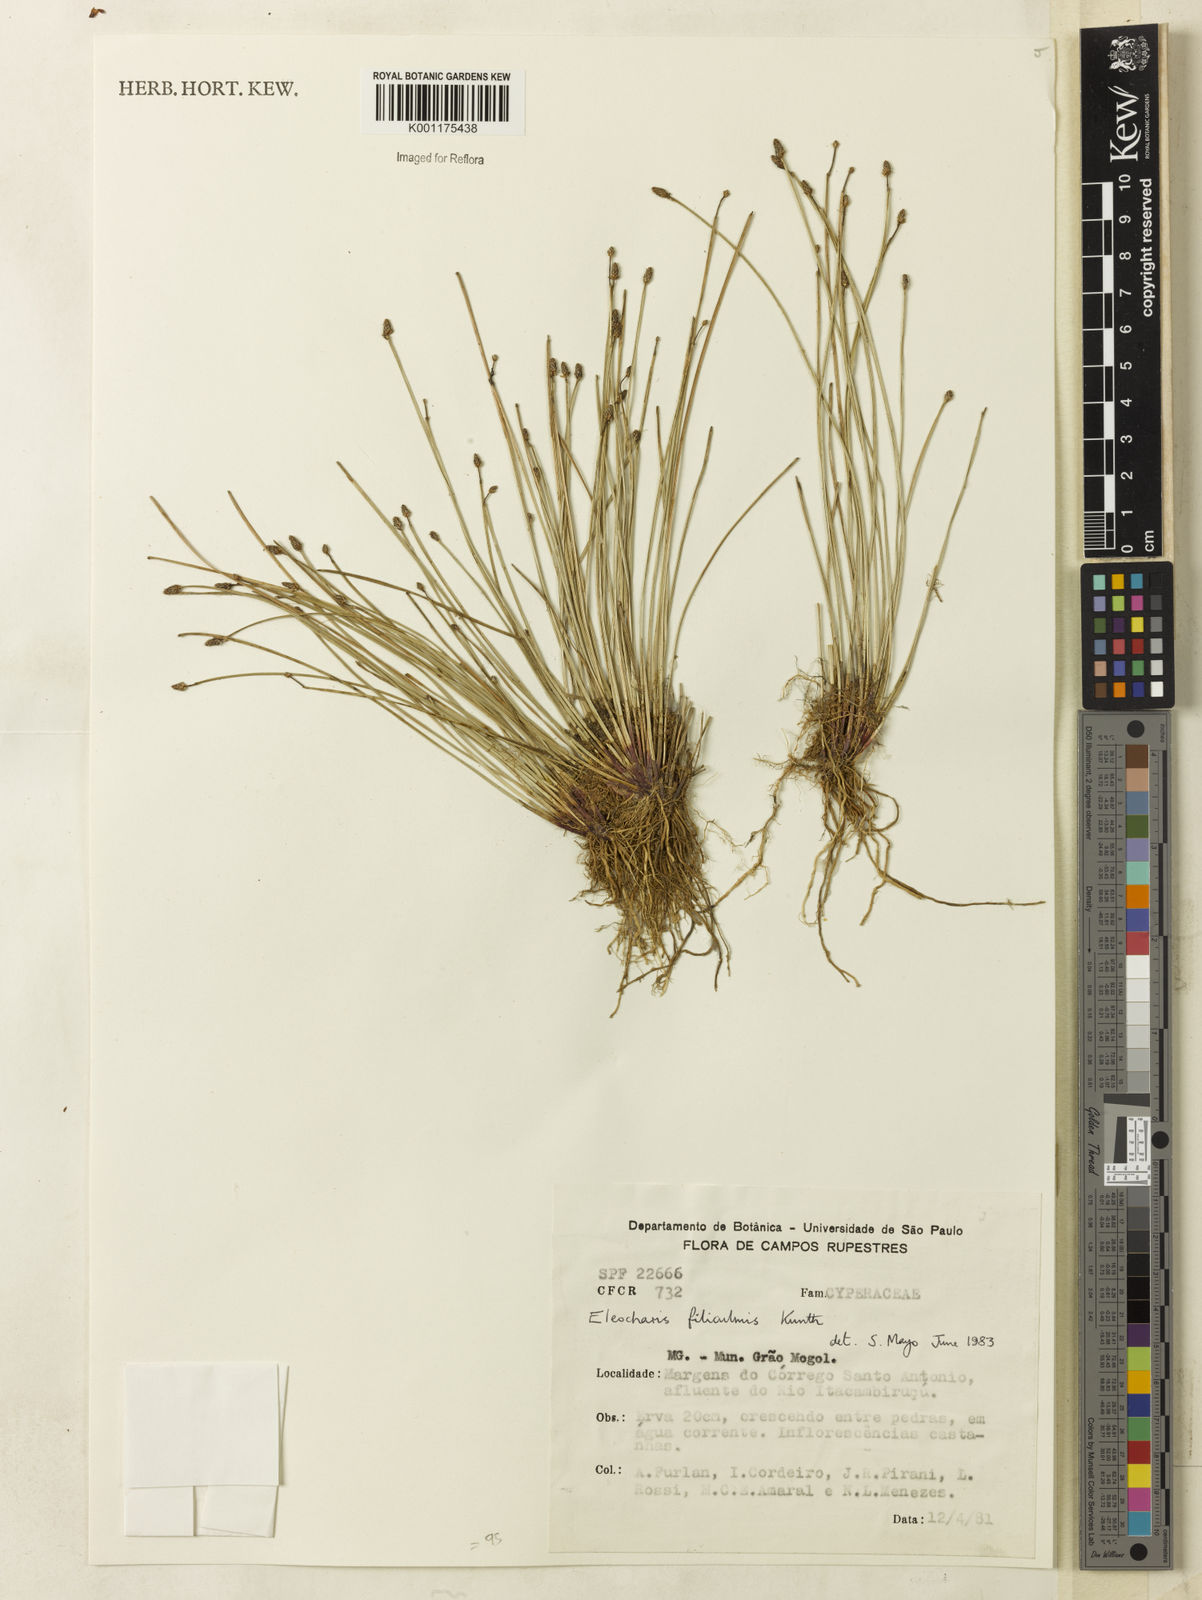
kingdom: Plantae
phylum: Tracheophyta
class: Liliopsida
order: Poales
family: Cyperaceae
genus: Eleocharis
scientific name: Eleocharis filiculmis
